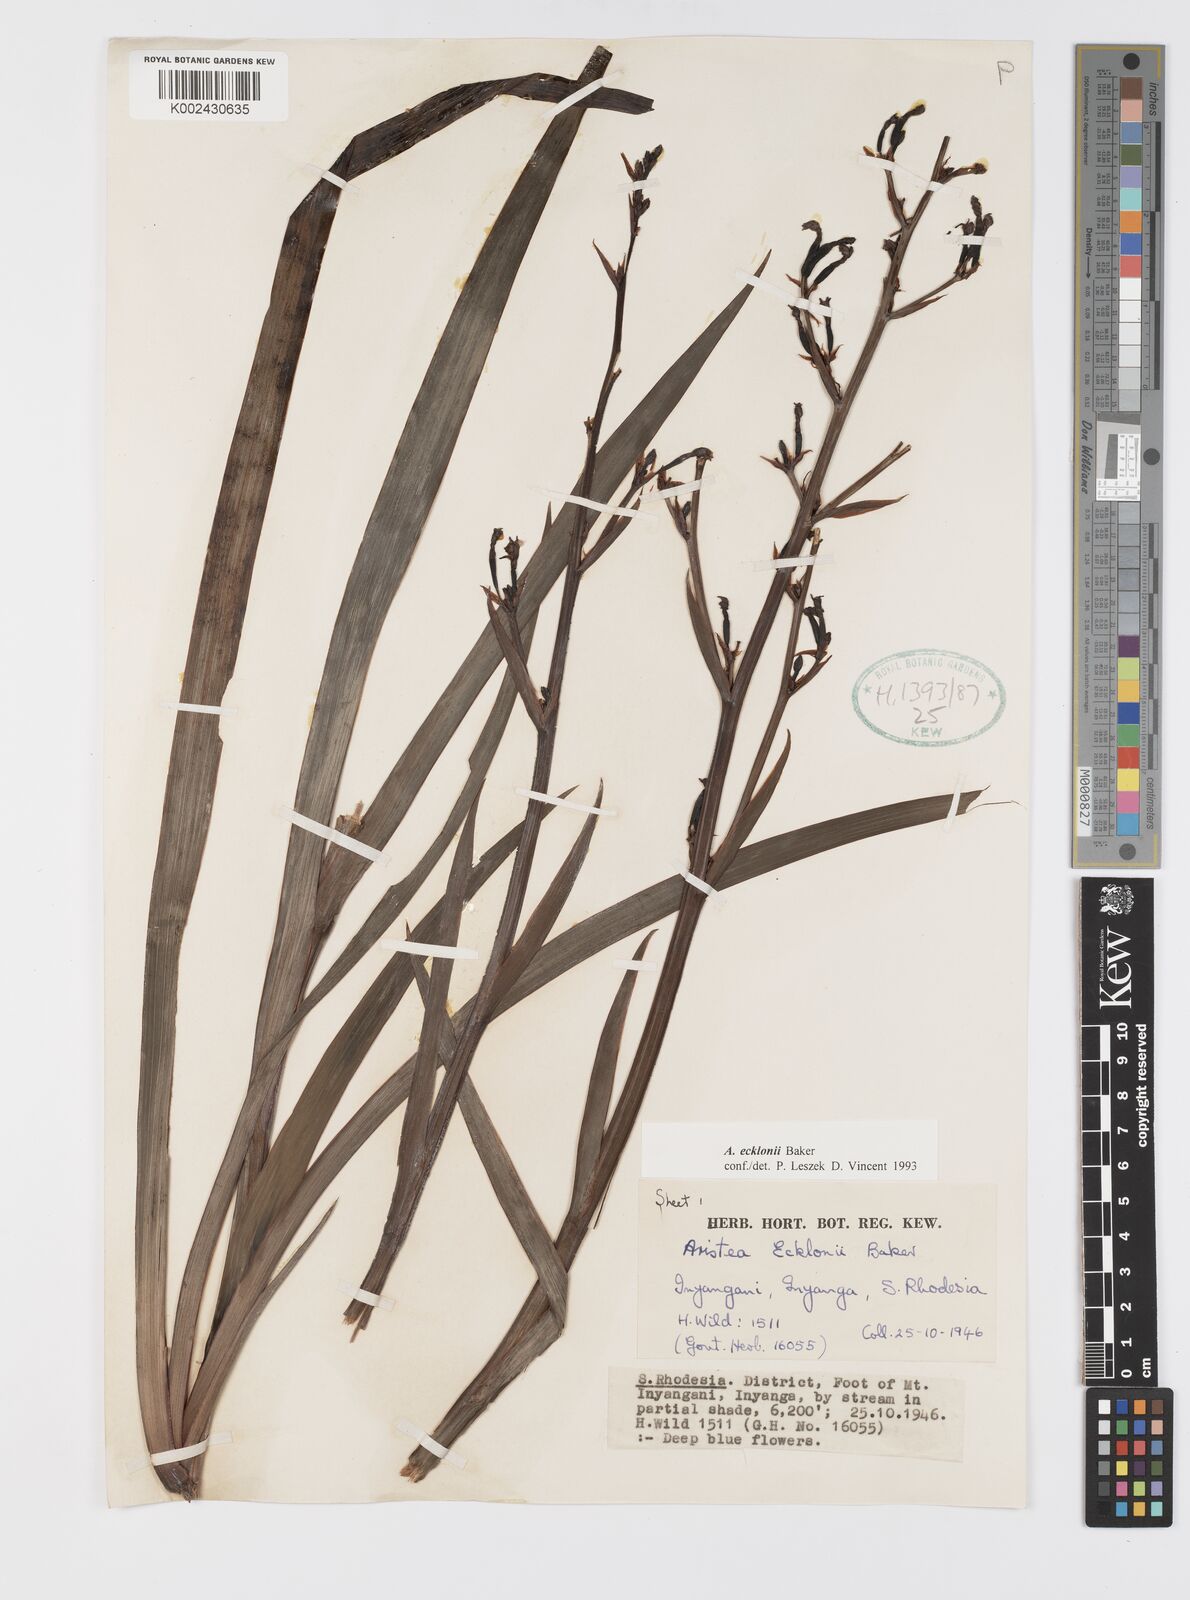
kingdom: Plantae
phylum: Tracheophyta
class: Liliopsida
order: Asparagales
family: Iridaceae
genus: Aristea
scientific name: Aristea ecklonii
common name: Blue corn-lily
